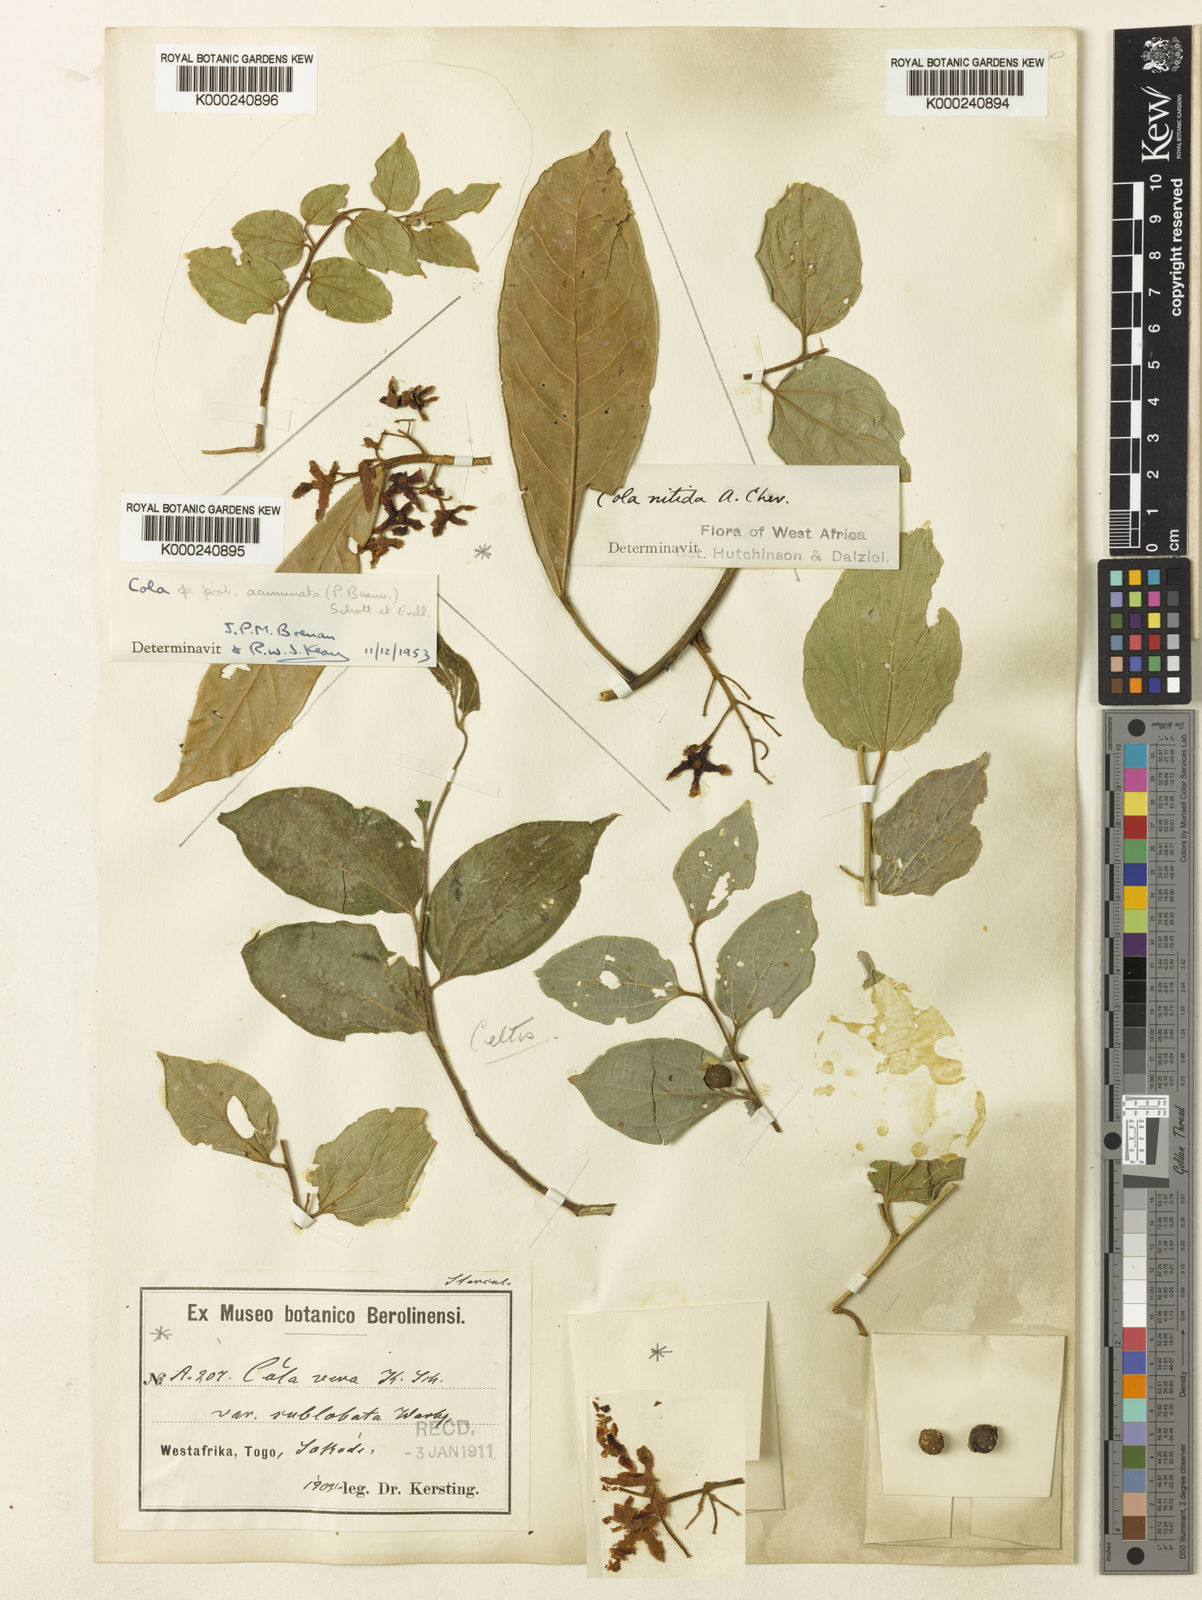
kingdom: Plantae
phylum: Tracheophyta
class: Magnoliopsida
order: Malvales
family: Malvaceae
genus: Cola
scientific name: Cola acuminata
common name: True kola
